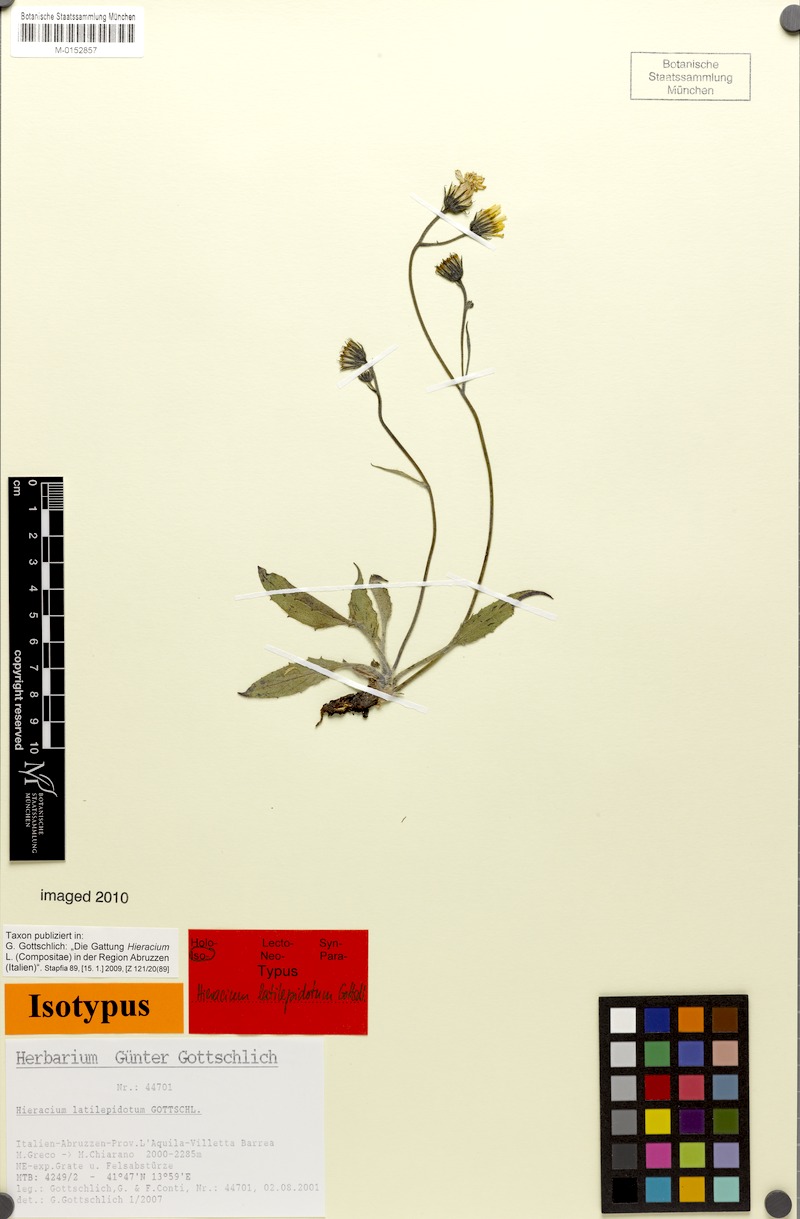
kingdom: Plantae
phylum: Tracheophyta
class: Magnoliopsida
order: Asterales
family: Asteraceae
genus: Hieracium
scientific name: Hieracium latilepidotum
